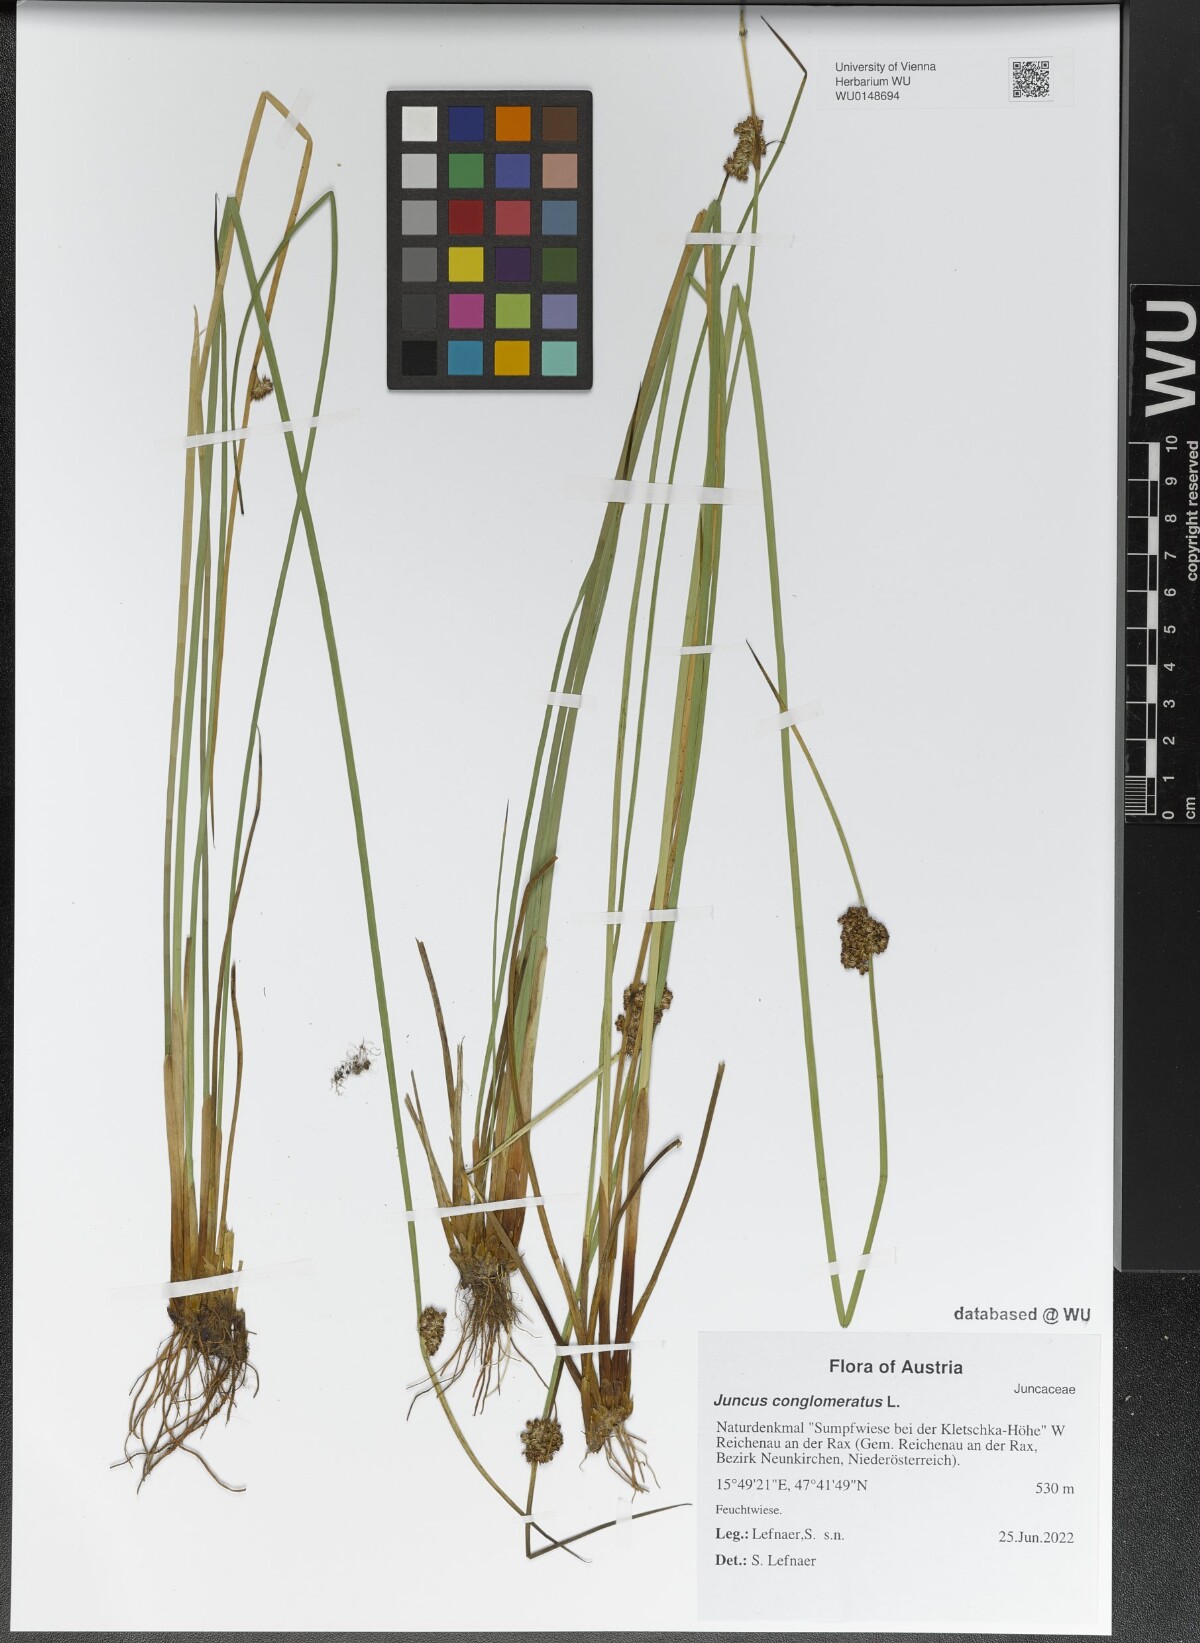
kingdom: Plantae
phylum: Tracheophyta
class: Liliopsida
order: Poales
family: Juncaceae
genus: Juncus
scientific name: Juncus conglomeratus
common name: Compact rush
